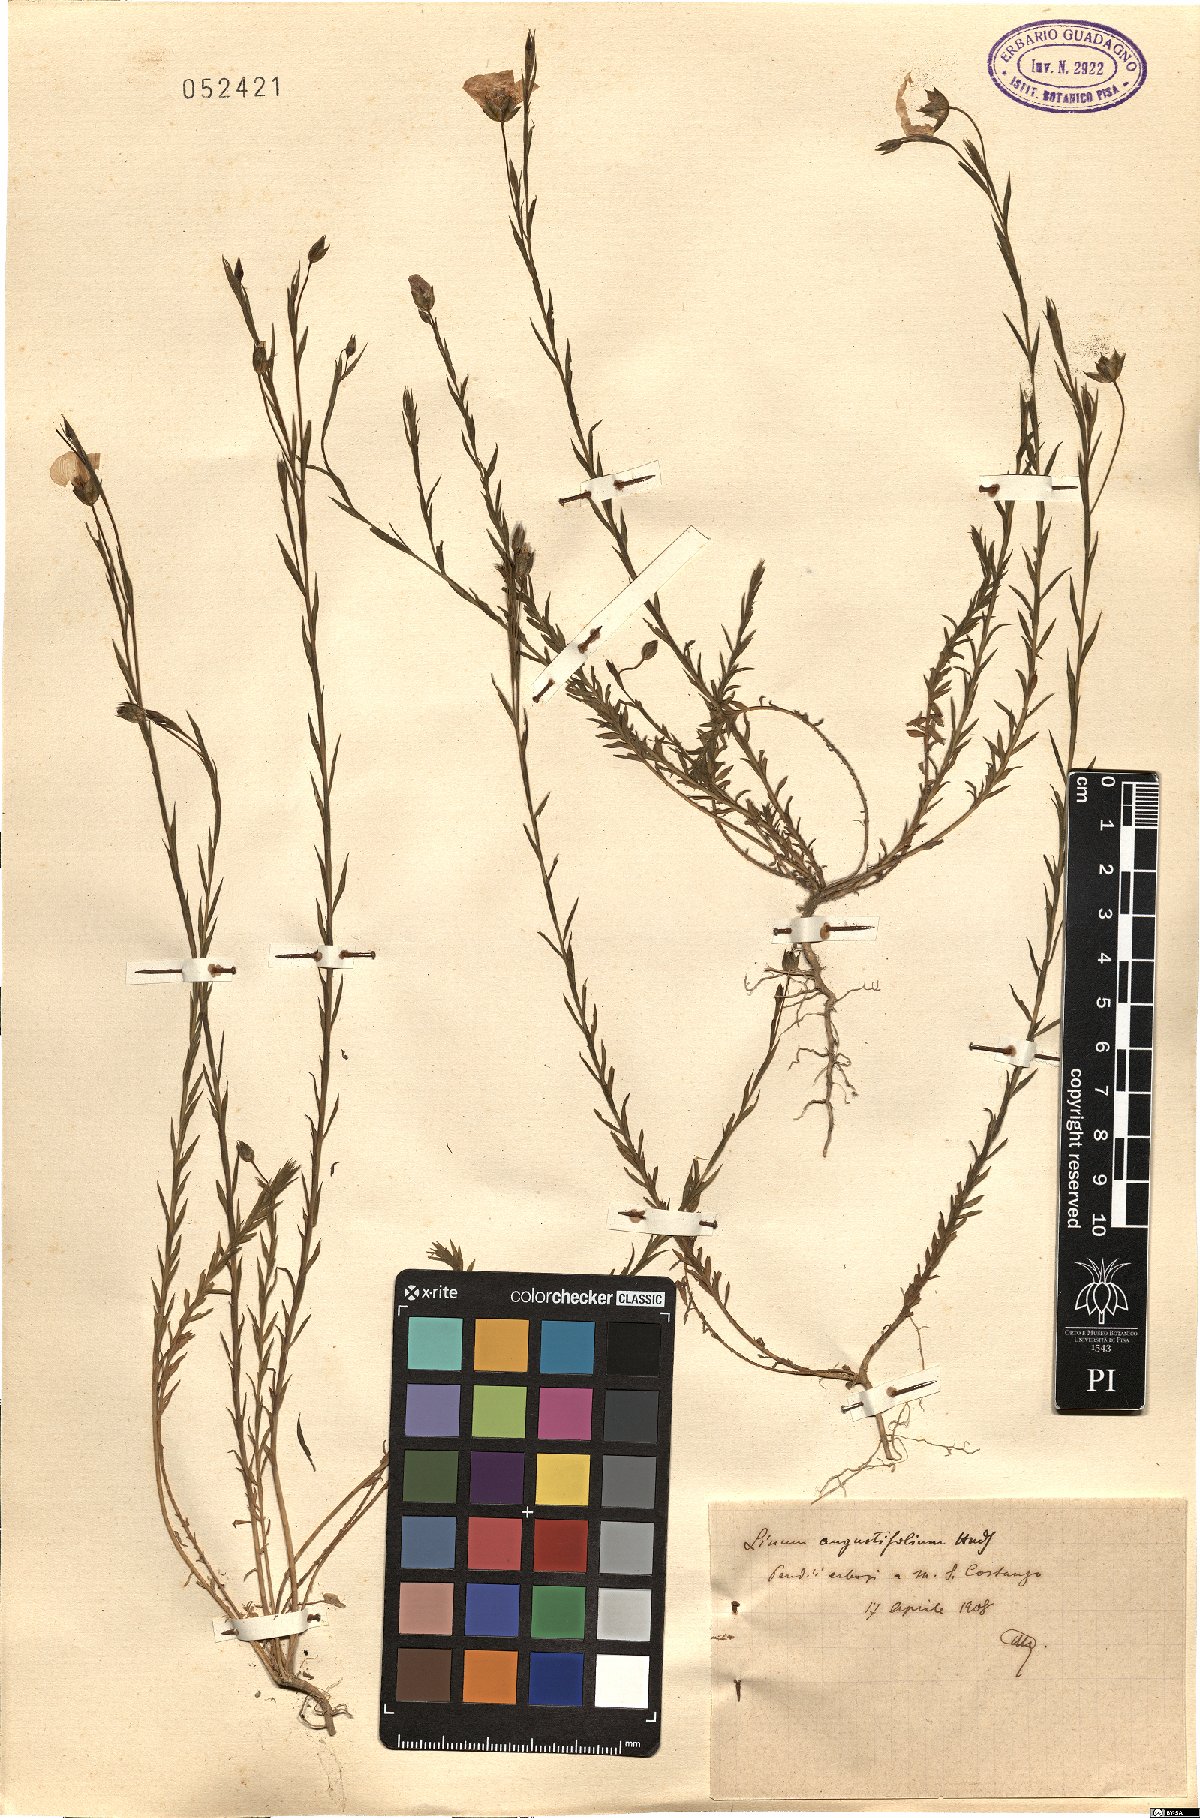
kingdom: Plantae
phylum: Tracheophyta
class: Magnoliopsida
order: Malpighiales
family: Linaceae
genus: Linum
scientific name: Linum bienne
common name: Pale flax
